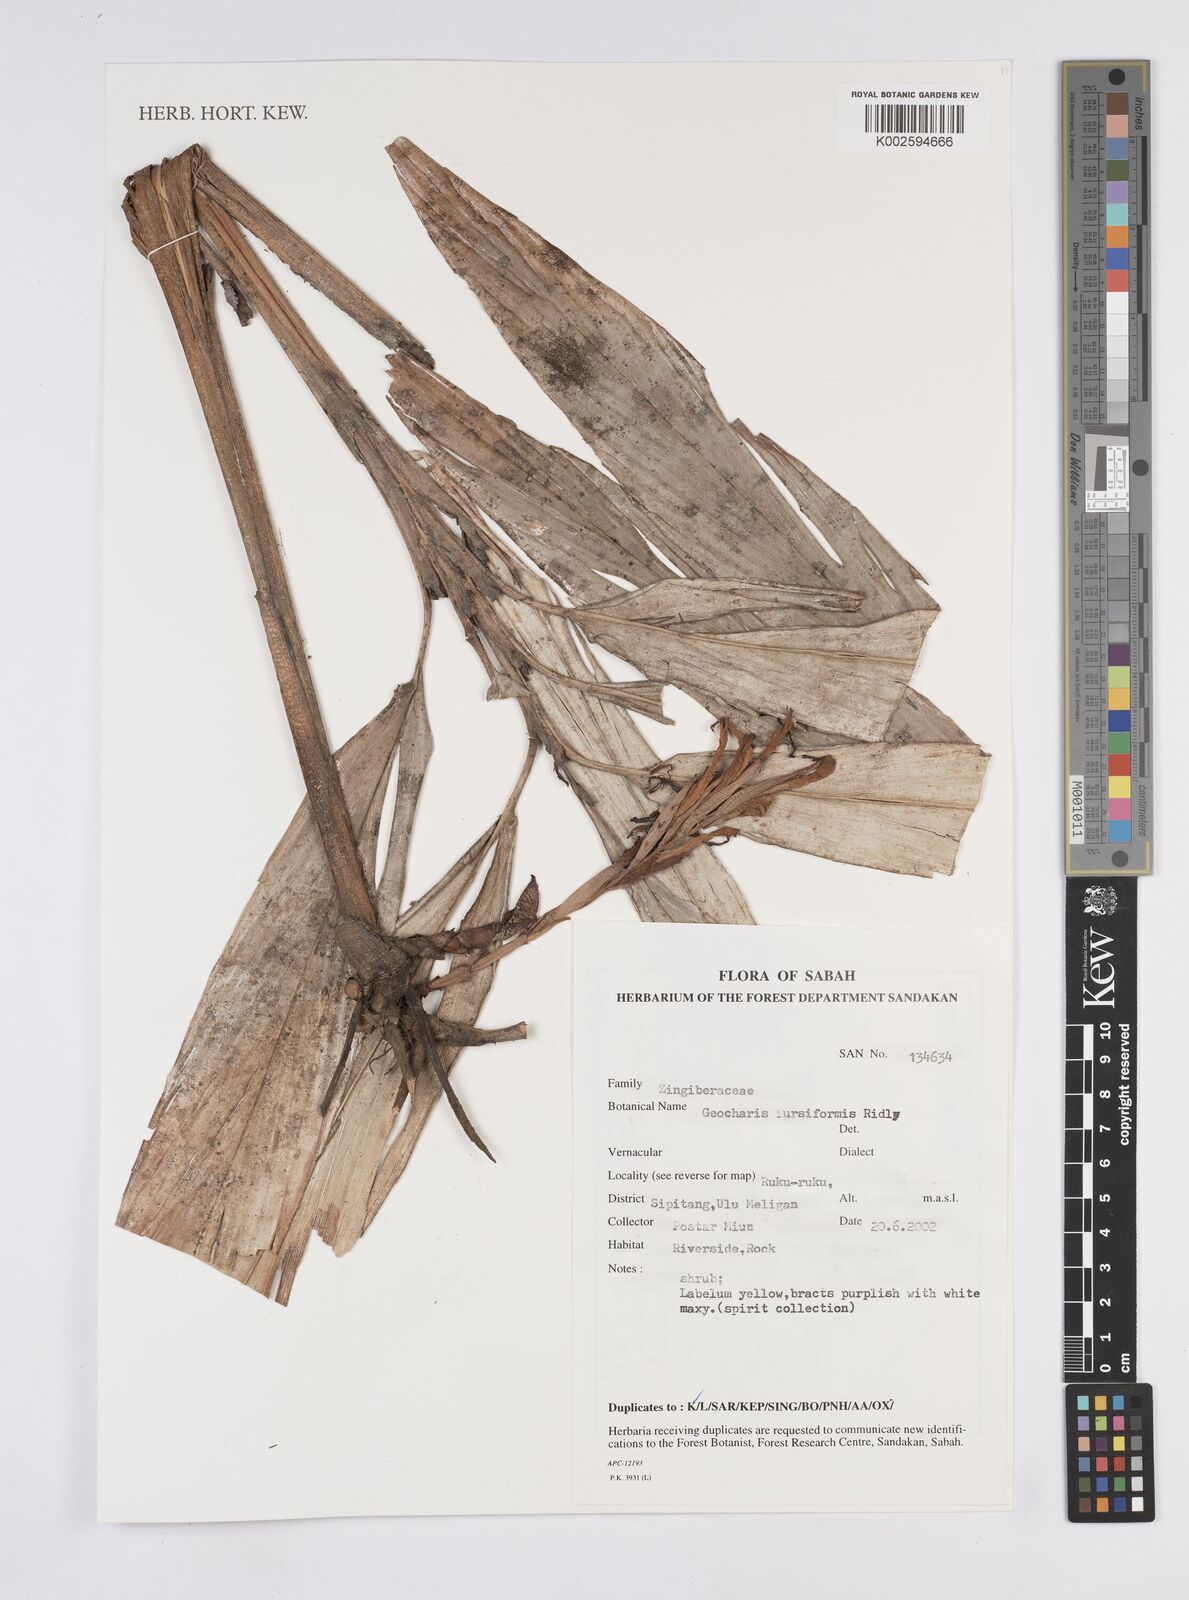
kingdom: Plantae
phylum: Tracheophyta
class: Liliopsida
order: Zingiberales
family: Zingiberaceae
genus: Geocharis
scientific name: Geocharis fusiformis
